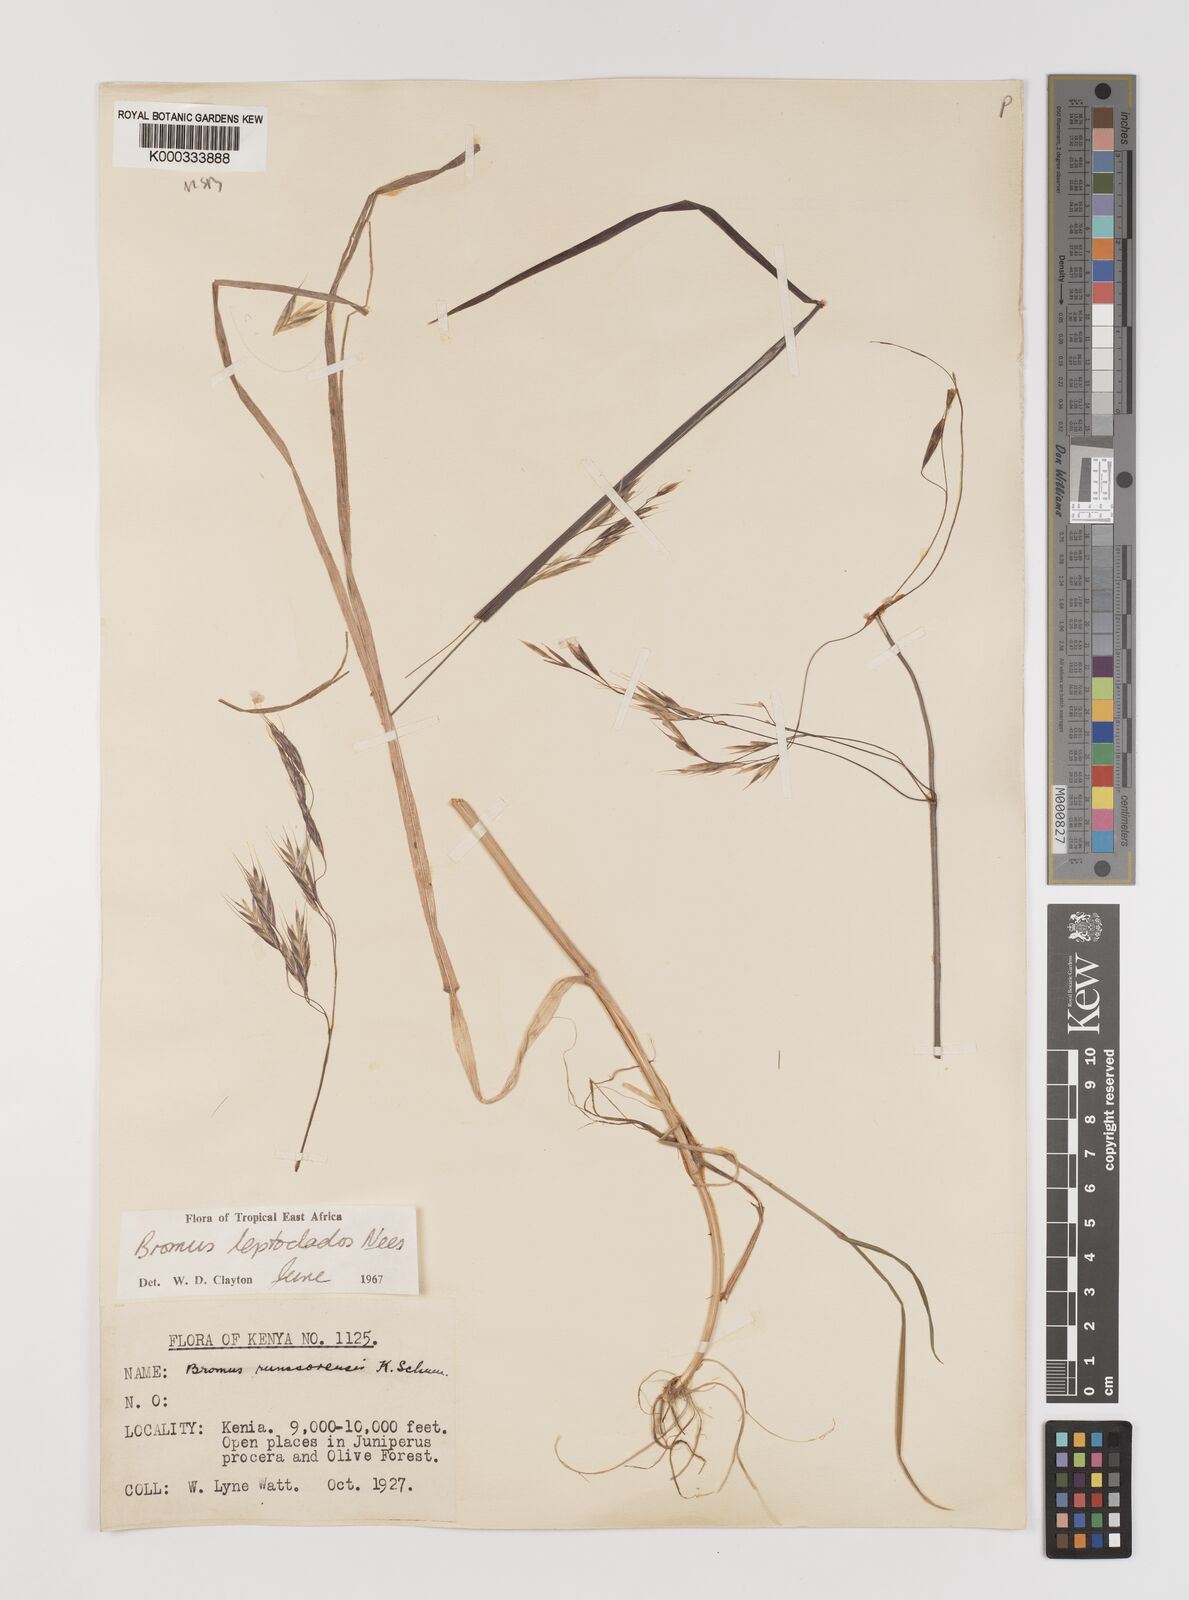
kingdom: Plantae
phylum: Tracheophyta
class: Liliopsida
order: Poales
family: Poaceae
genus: Bromus
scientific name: Bromus leptoclados
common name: Mountain bromegrass
